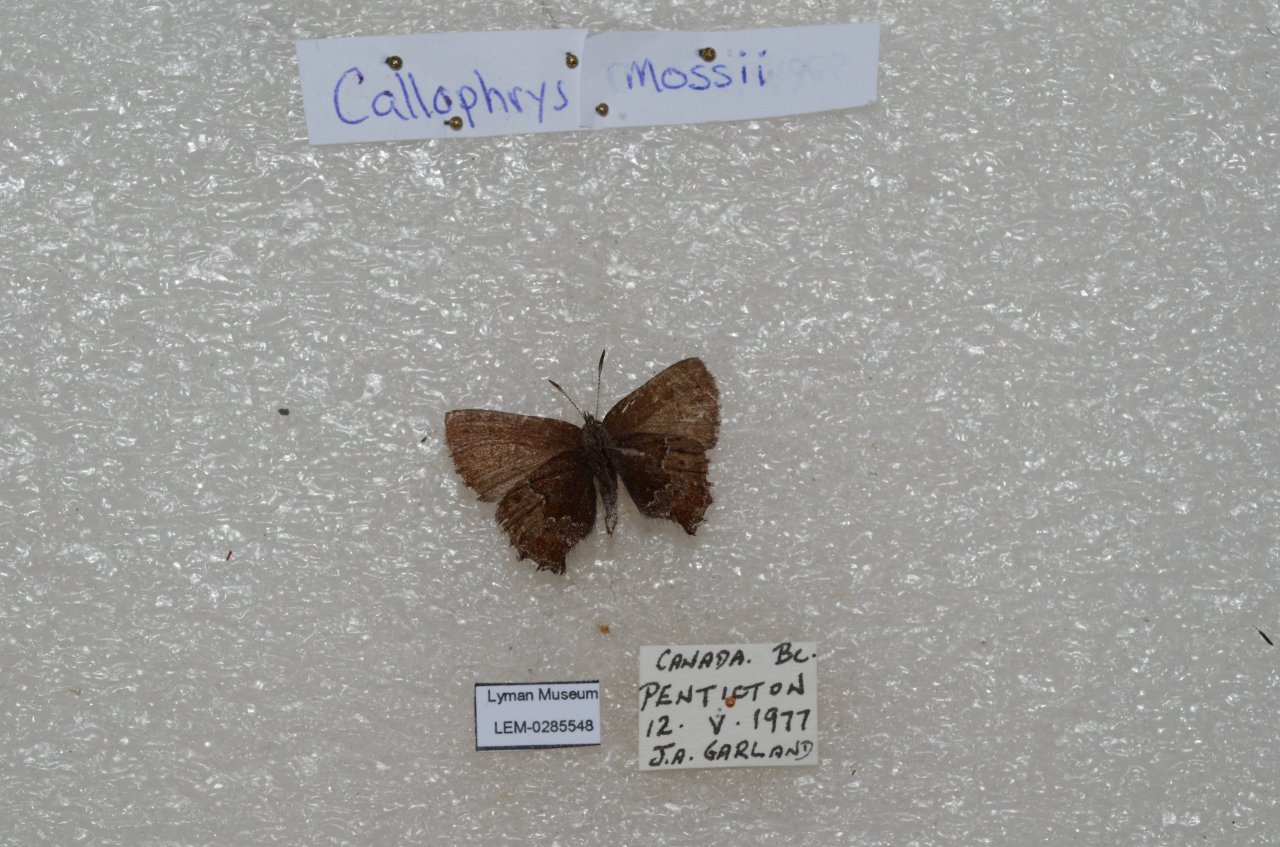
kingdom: Animalia
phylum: Arthropoda
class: Insecta
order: Lepidoptera
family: Lycaenidae
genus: Callophrys
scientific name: Callophrys mossii
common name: Moss' Elfin
